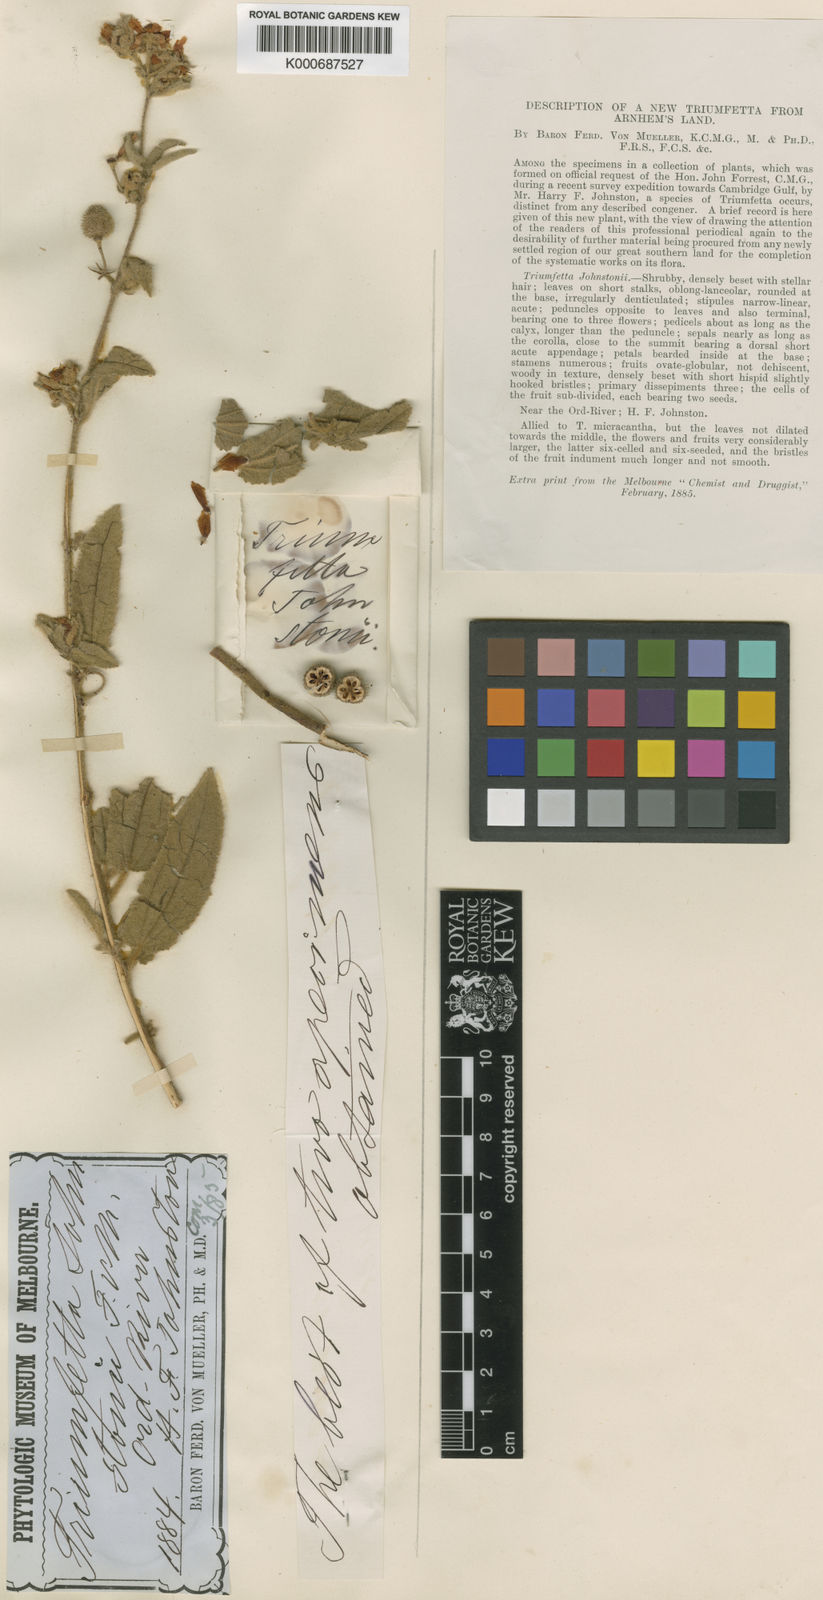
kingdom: Plantae
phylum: Tracheophyta
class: Magnoliopsida
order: Malvales
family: Malvaceae
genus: Triumfetta
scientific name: Triumfetta johnstonii
